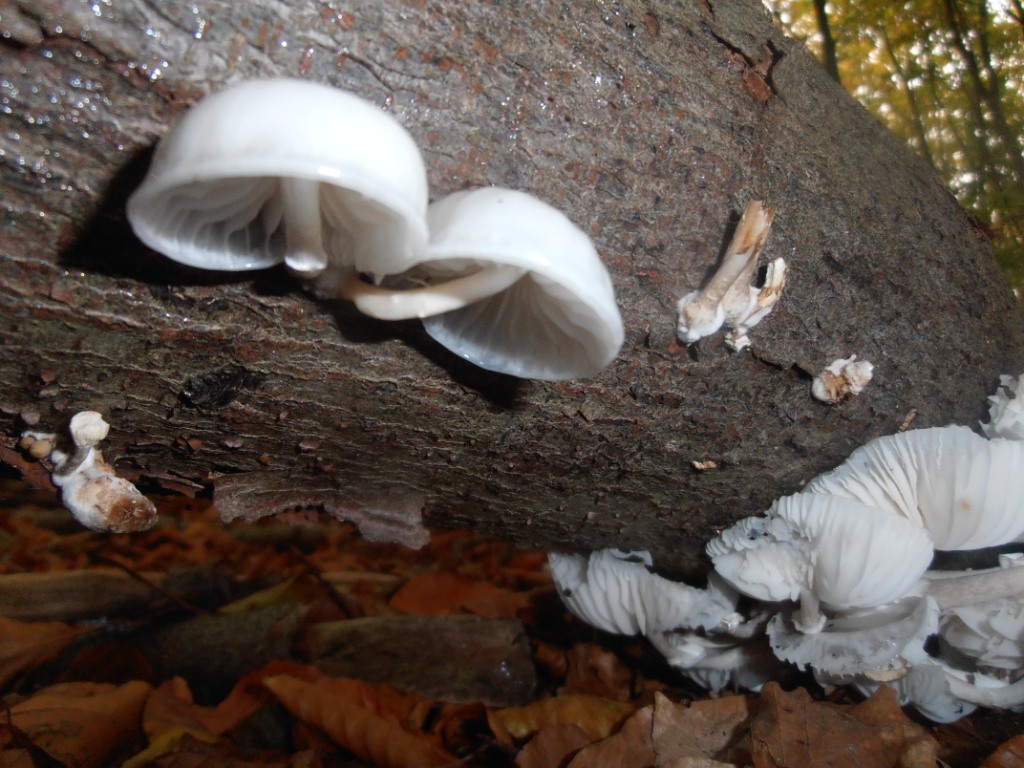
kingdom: Fungi
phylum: Basidiomycota
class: Agaricomycetes
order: Agaricales
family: Physalacriaceae
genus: Mucidula
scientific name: Mucidula mucida
